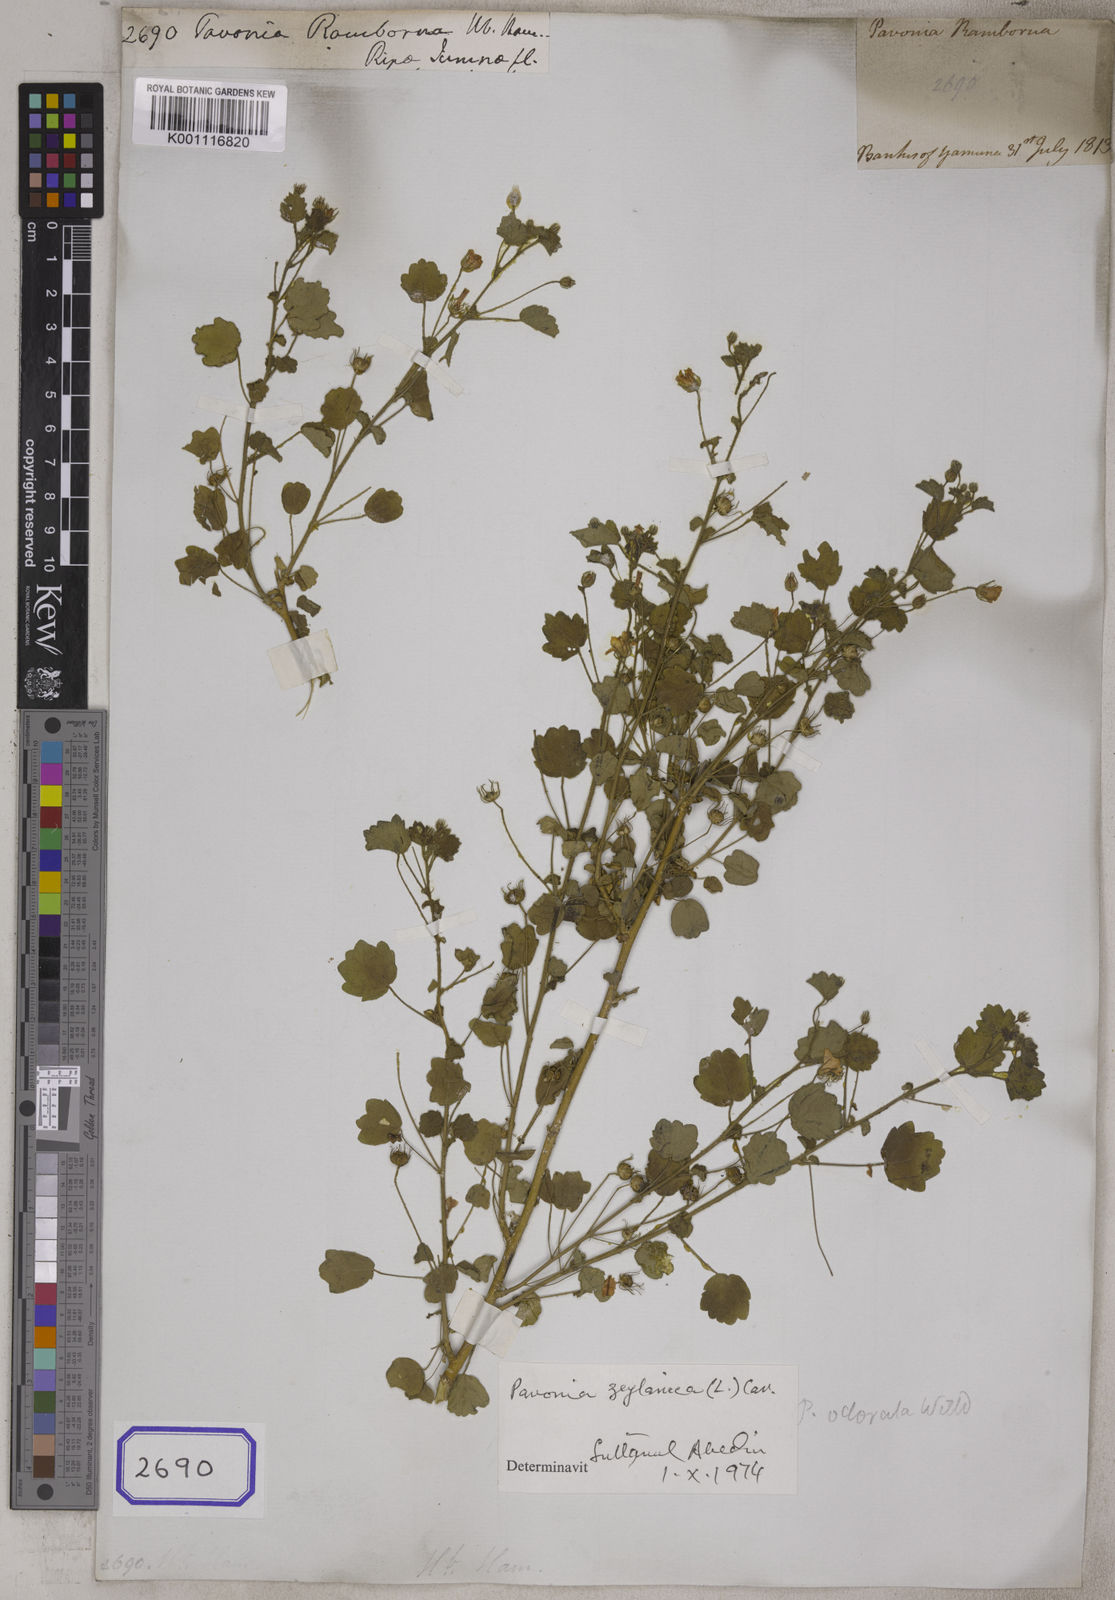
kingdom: Plantae
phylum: Tracheophyta
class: Magnoliopsida
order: Malvales
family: Malvaceae
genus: Pavonia
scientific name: Pavonia leptocalyx
